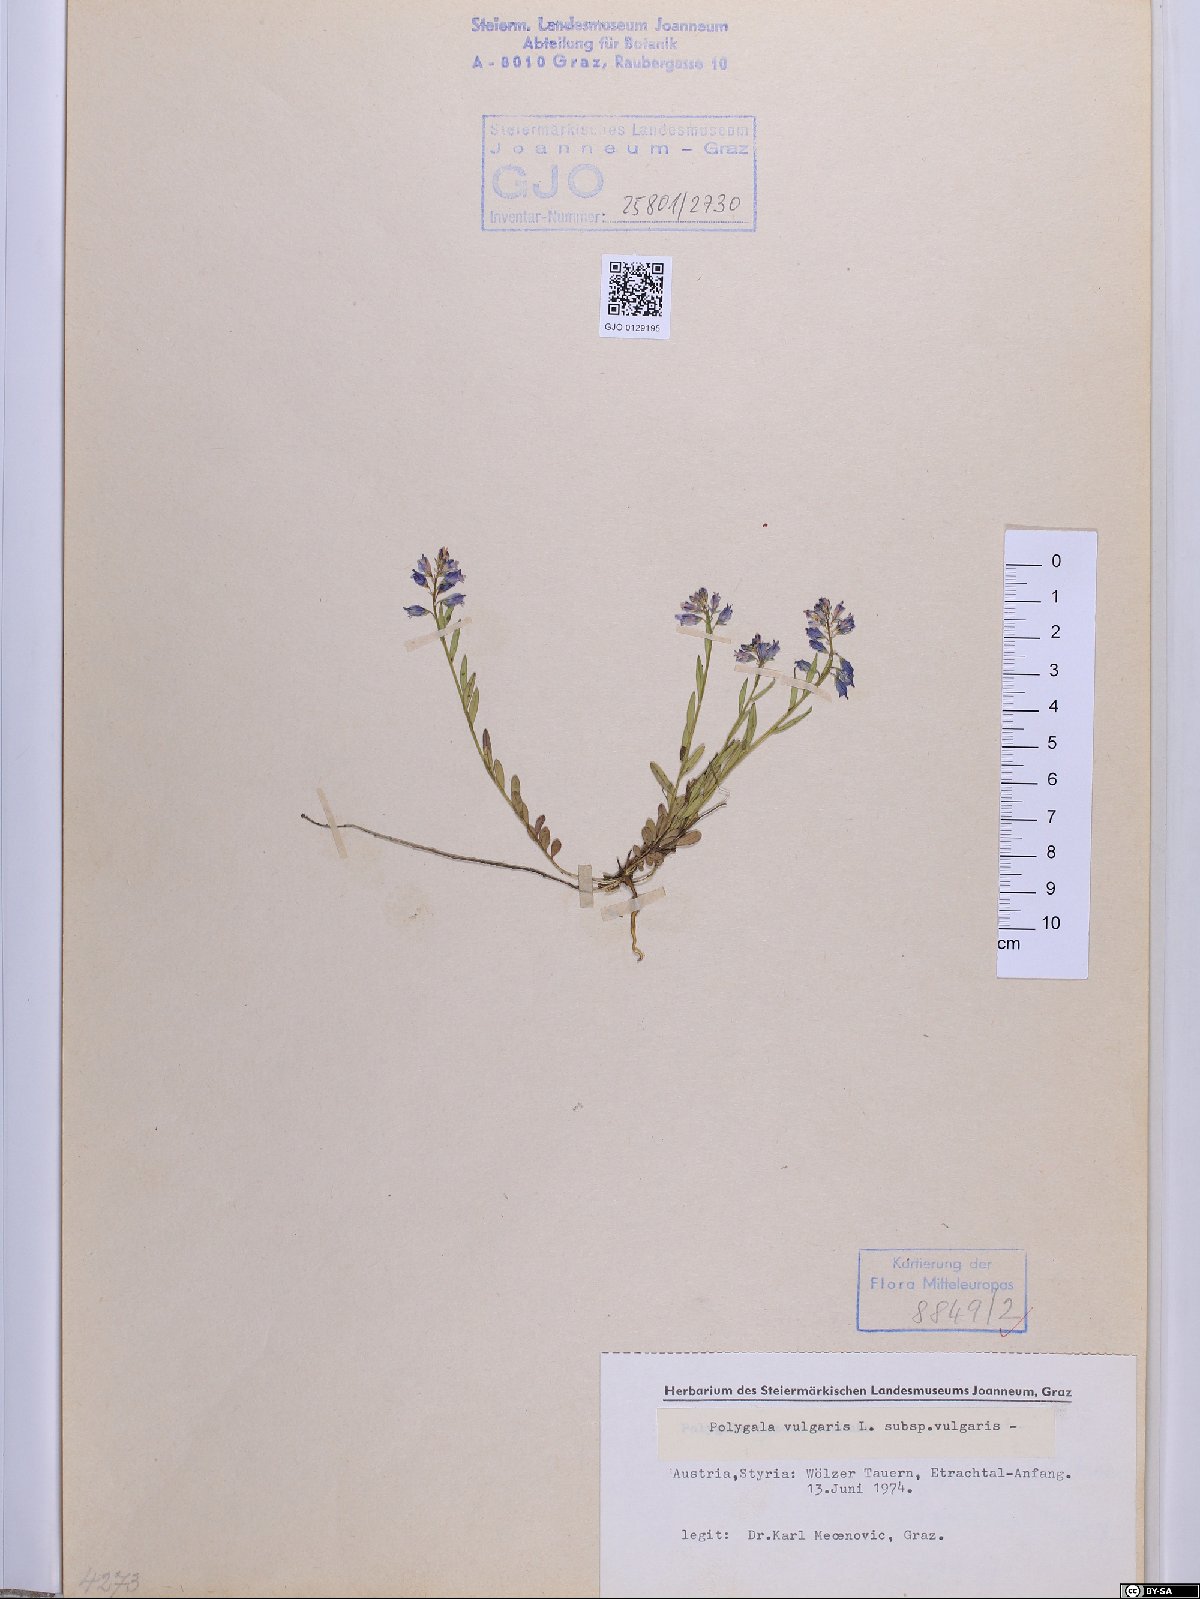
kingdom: Plantae
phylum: Tracheophyta
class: Magnoliopsida
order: Fabales
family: Polygalaceae
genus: Polygala
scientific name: Polygala vulgaris
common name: Common milkwort
